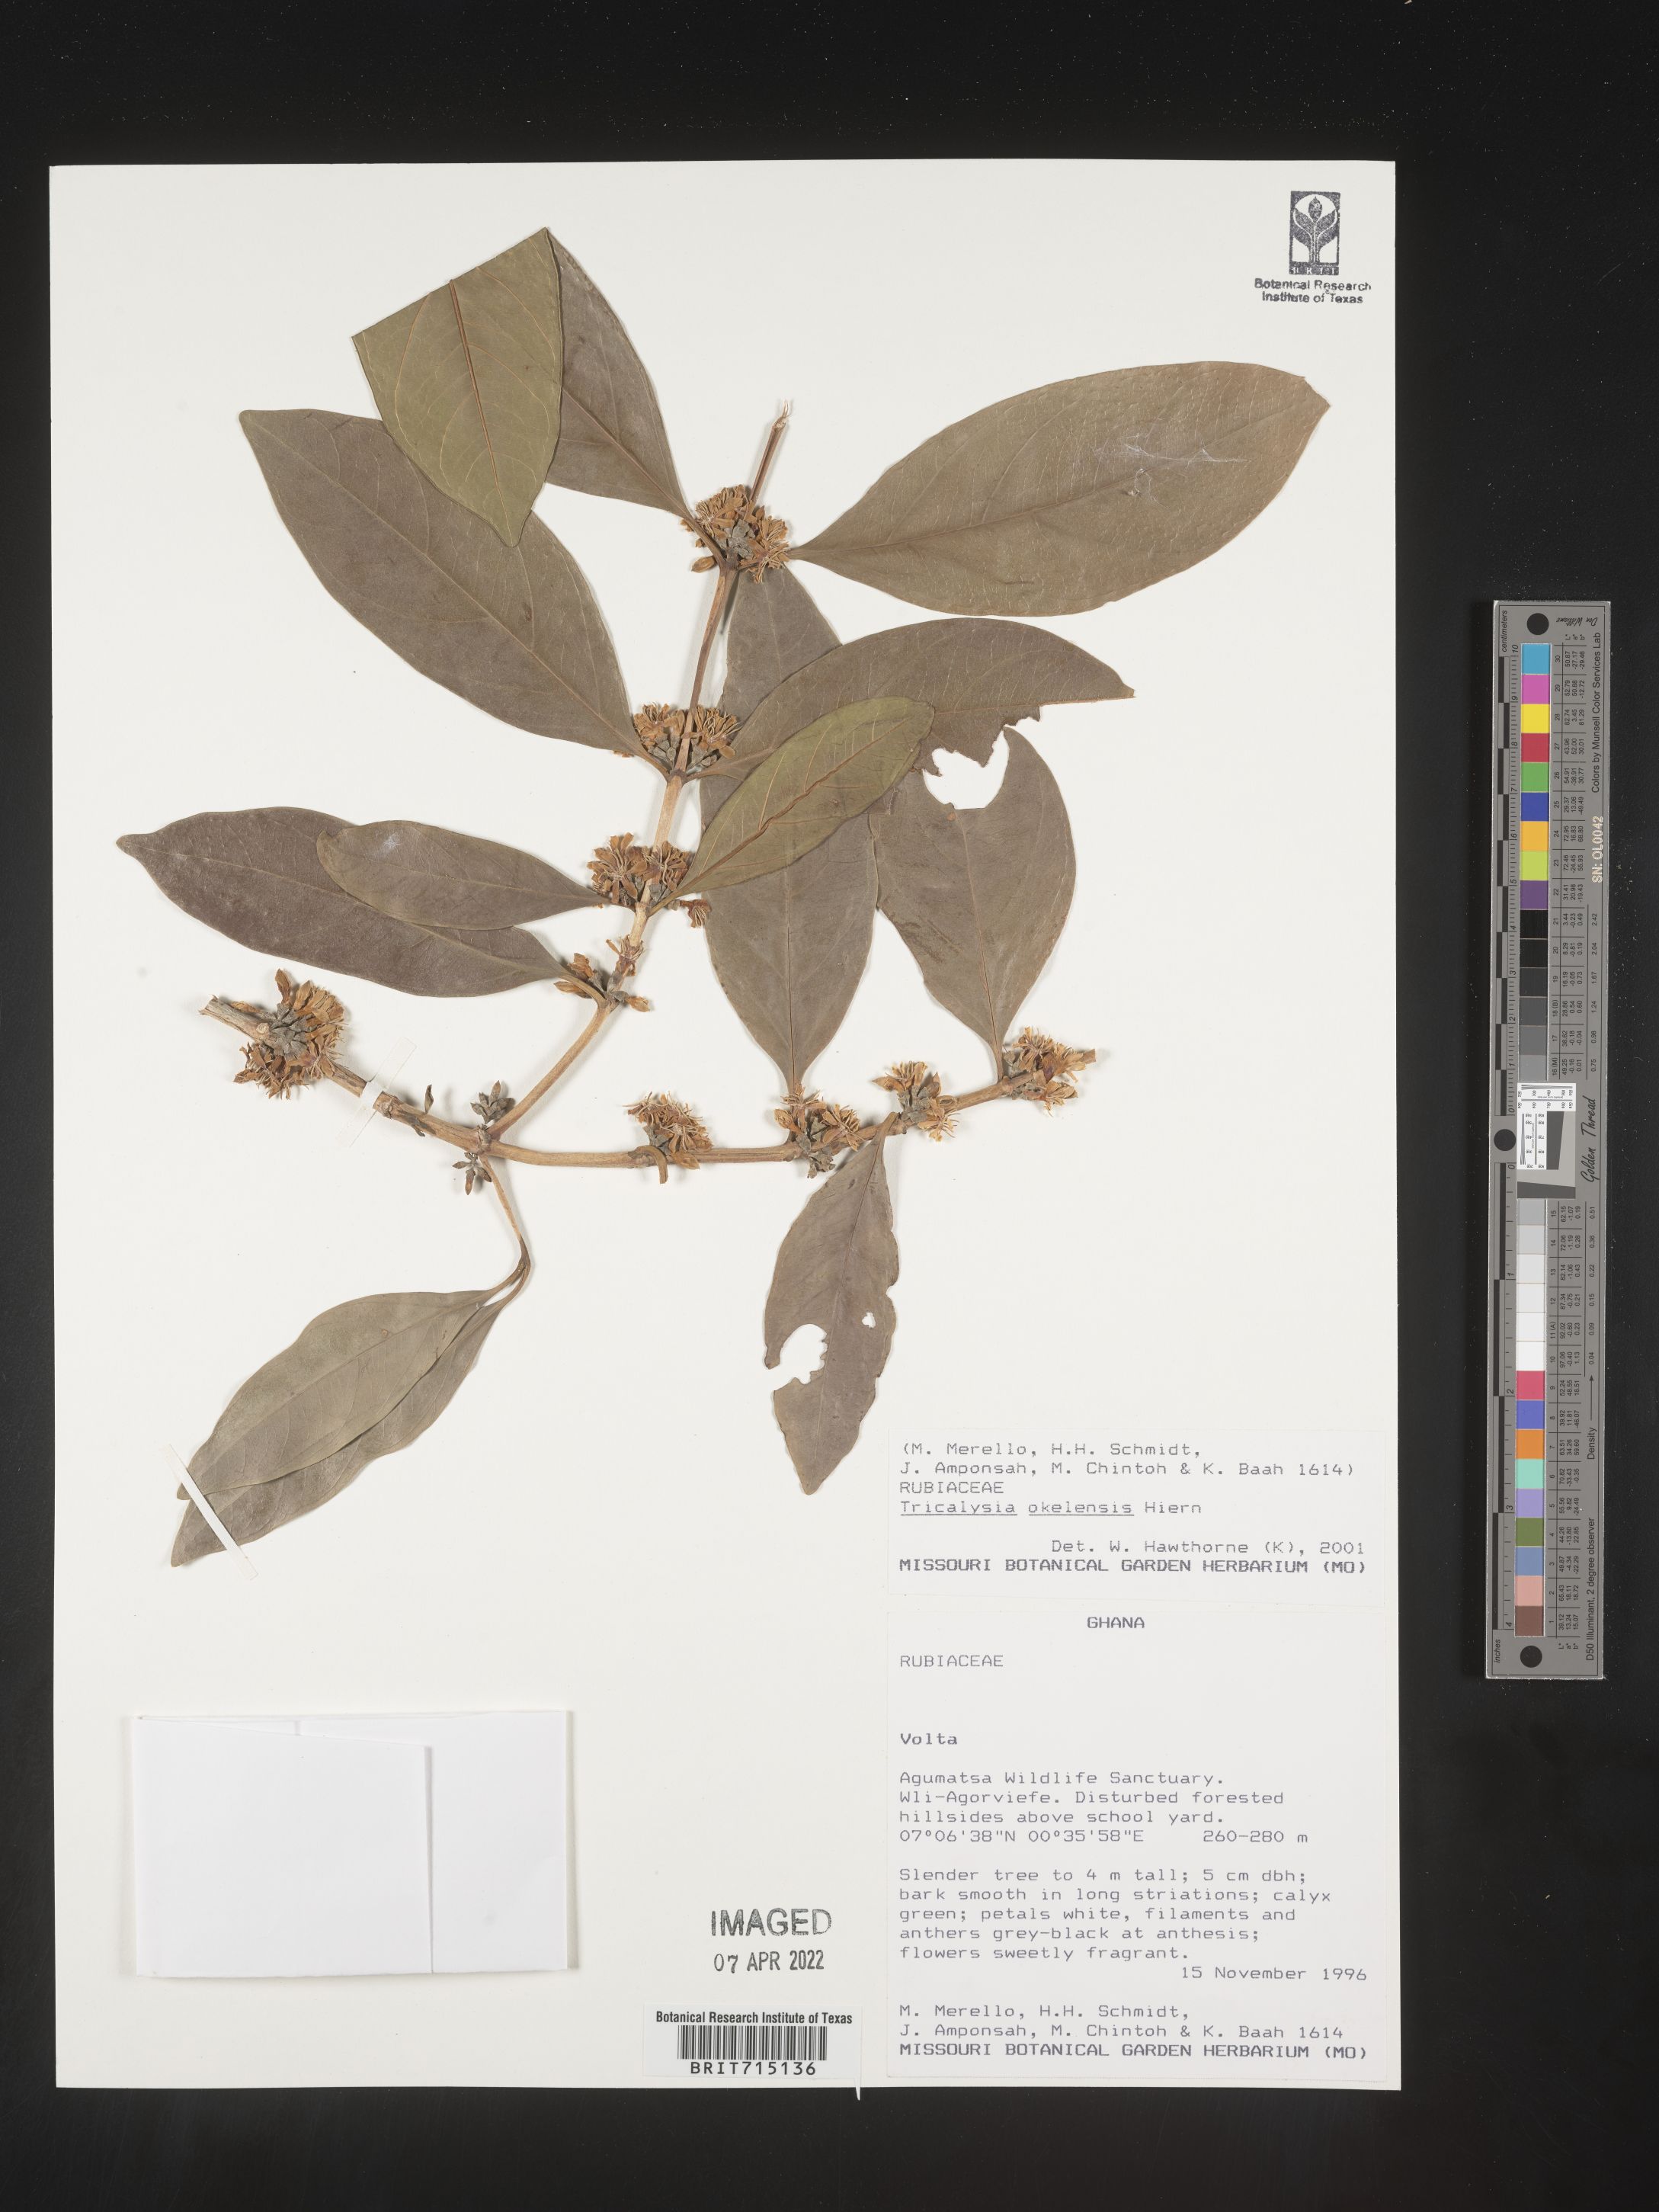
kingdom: Plantae
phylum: Tracheophyta
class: Magnoliopsida
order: Gentianales
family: Rubiaceae
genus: Tricalysia
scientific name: Tricalysia
